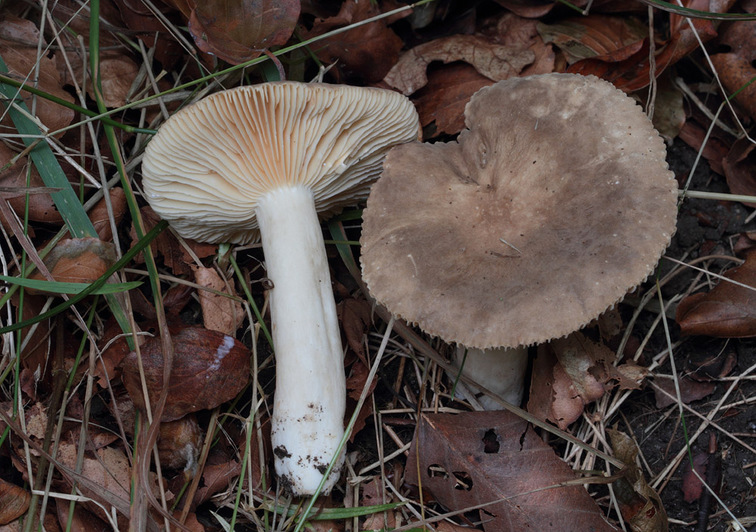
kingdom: Fungi
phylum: Basidiomycota
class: Agaricomycetes
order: Russulales
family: Russulaceae
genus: Lactarius
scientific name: Lactarius pterosporus
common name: vingesporet mælkehat
